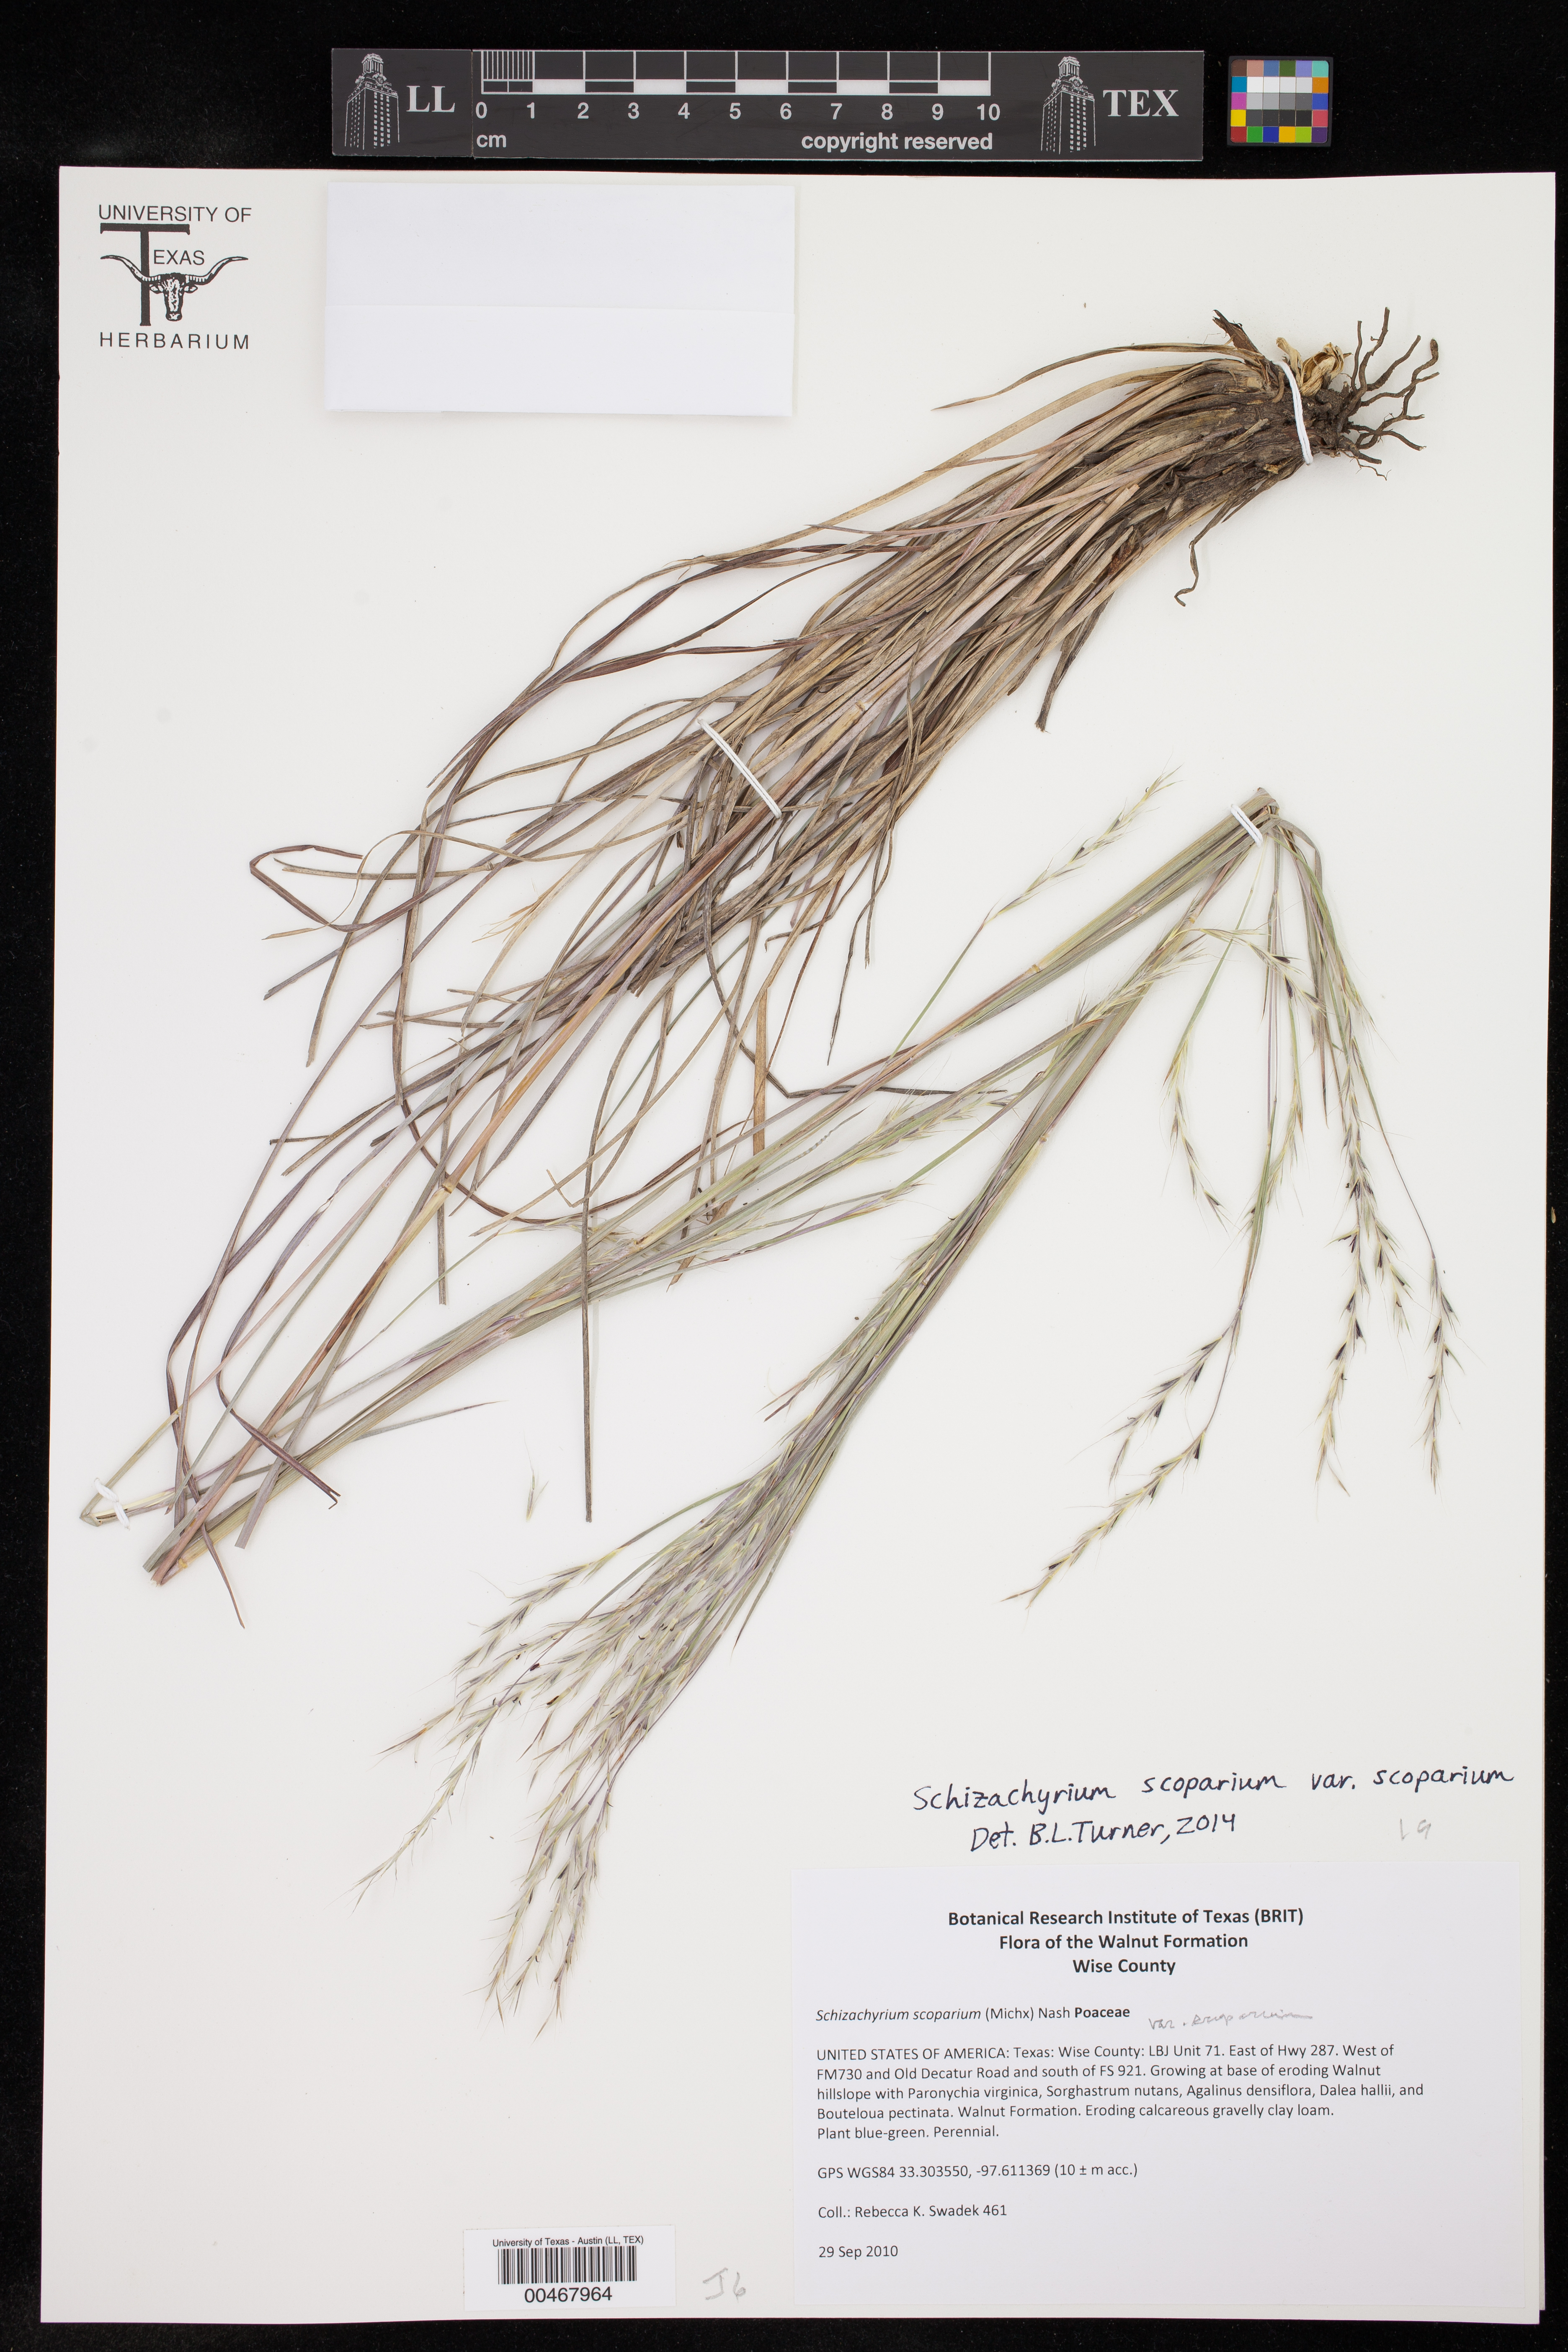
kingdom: Plantae
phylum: Tracheophyta
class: Liliopsida
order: Poales
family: Poaceae
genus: Schizachyrium
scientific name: Schizachyrium scoparium
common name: Little bluestem
